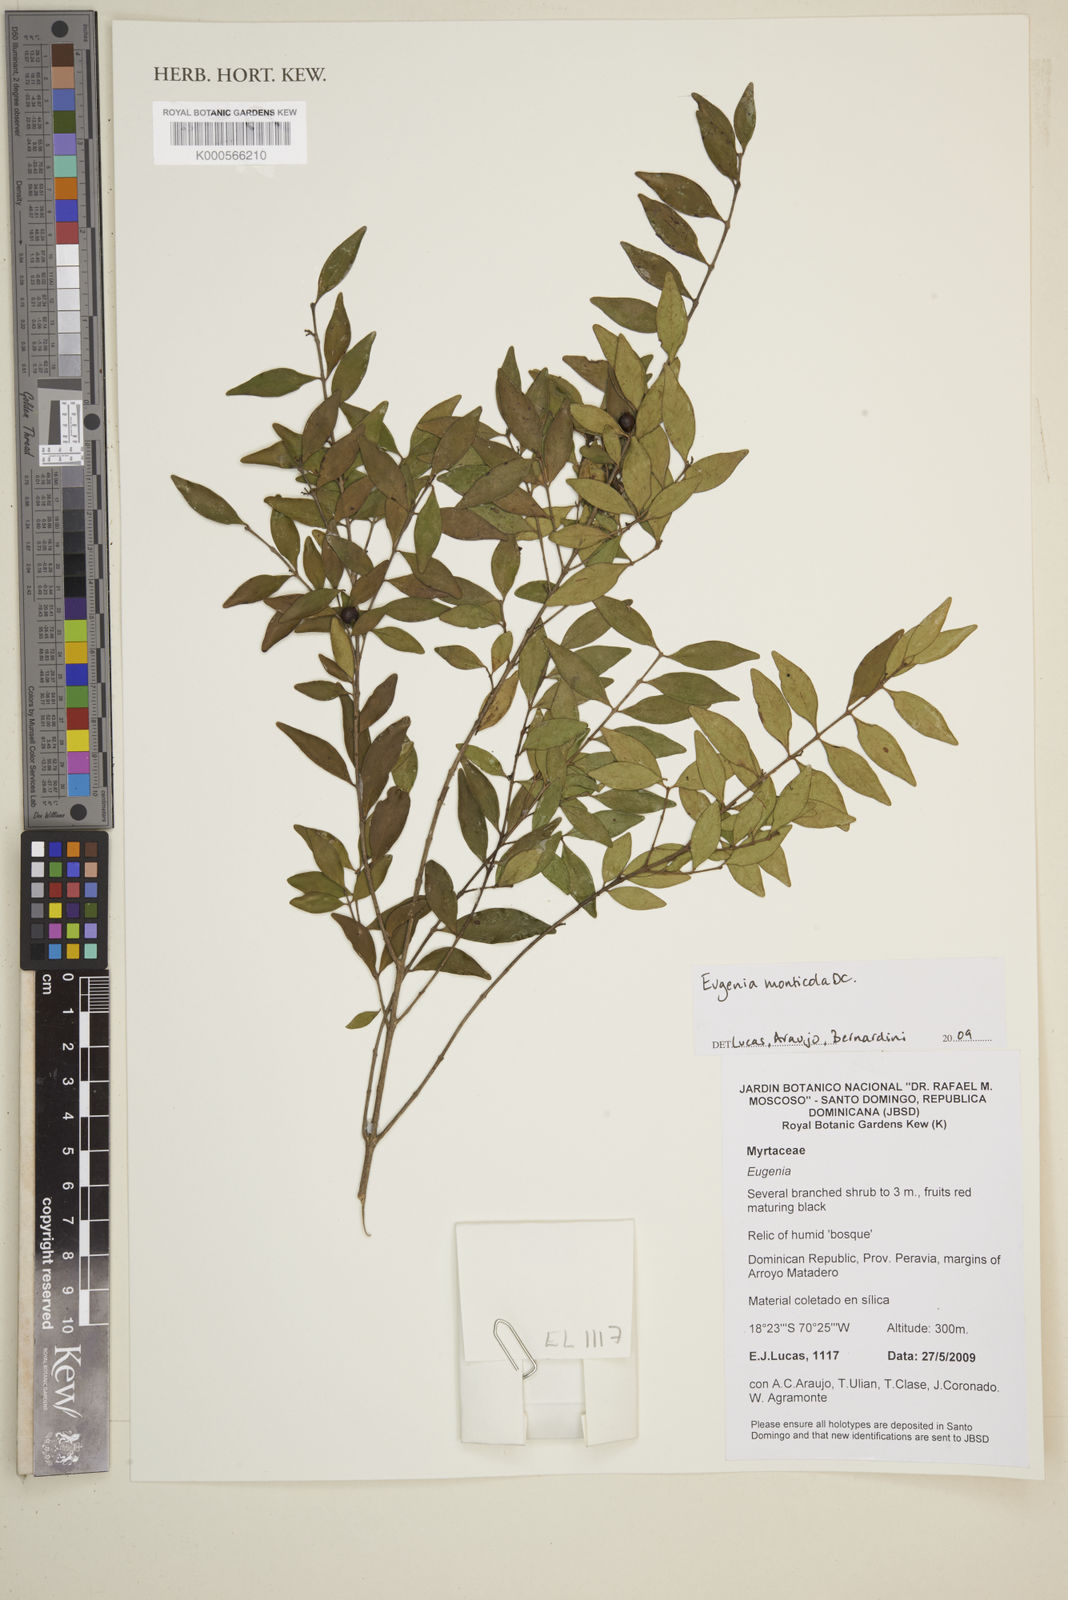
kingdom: Plantae
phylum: Tracheophyta
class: Magnoliopsida
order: Myrtales
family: Myrtaceae
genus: Eugenia
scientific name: Eugenia monticola
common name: Birds berry
